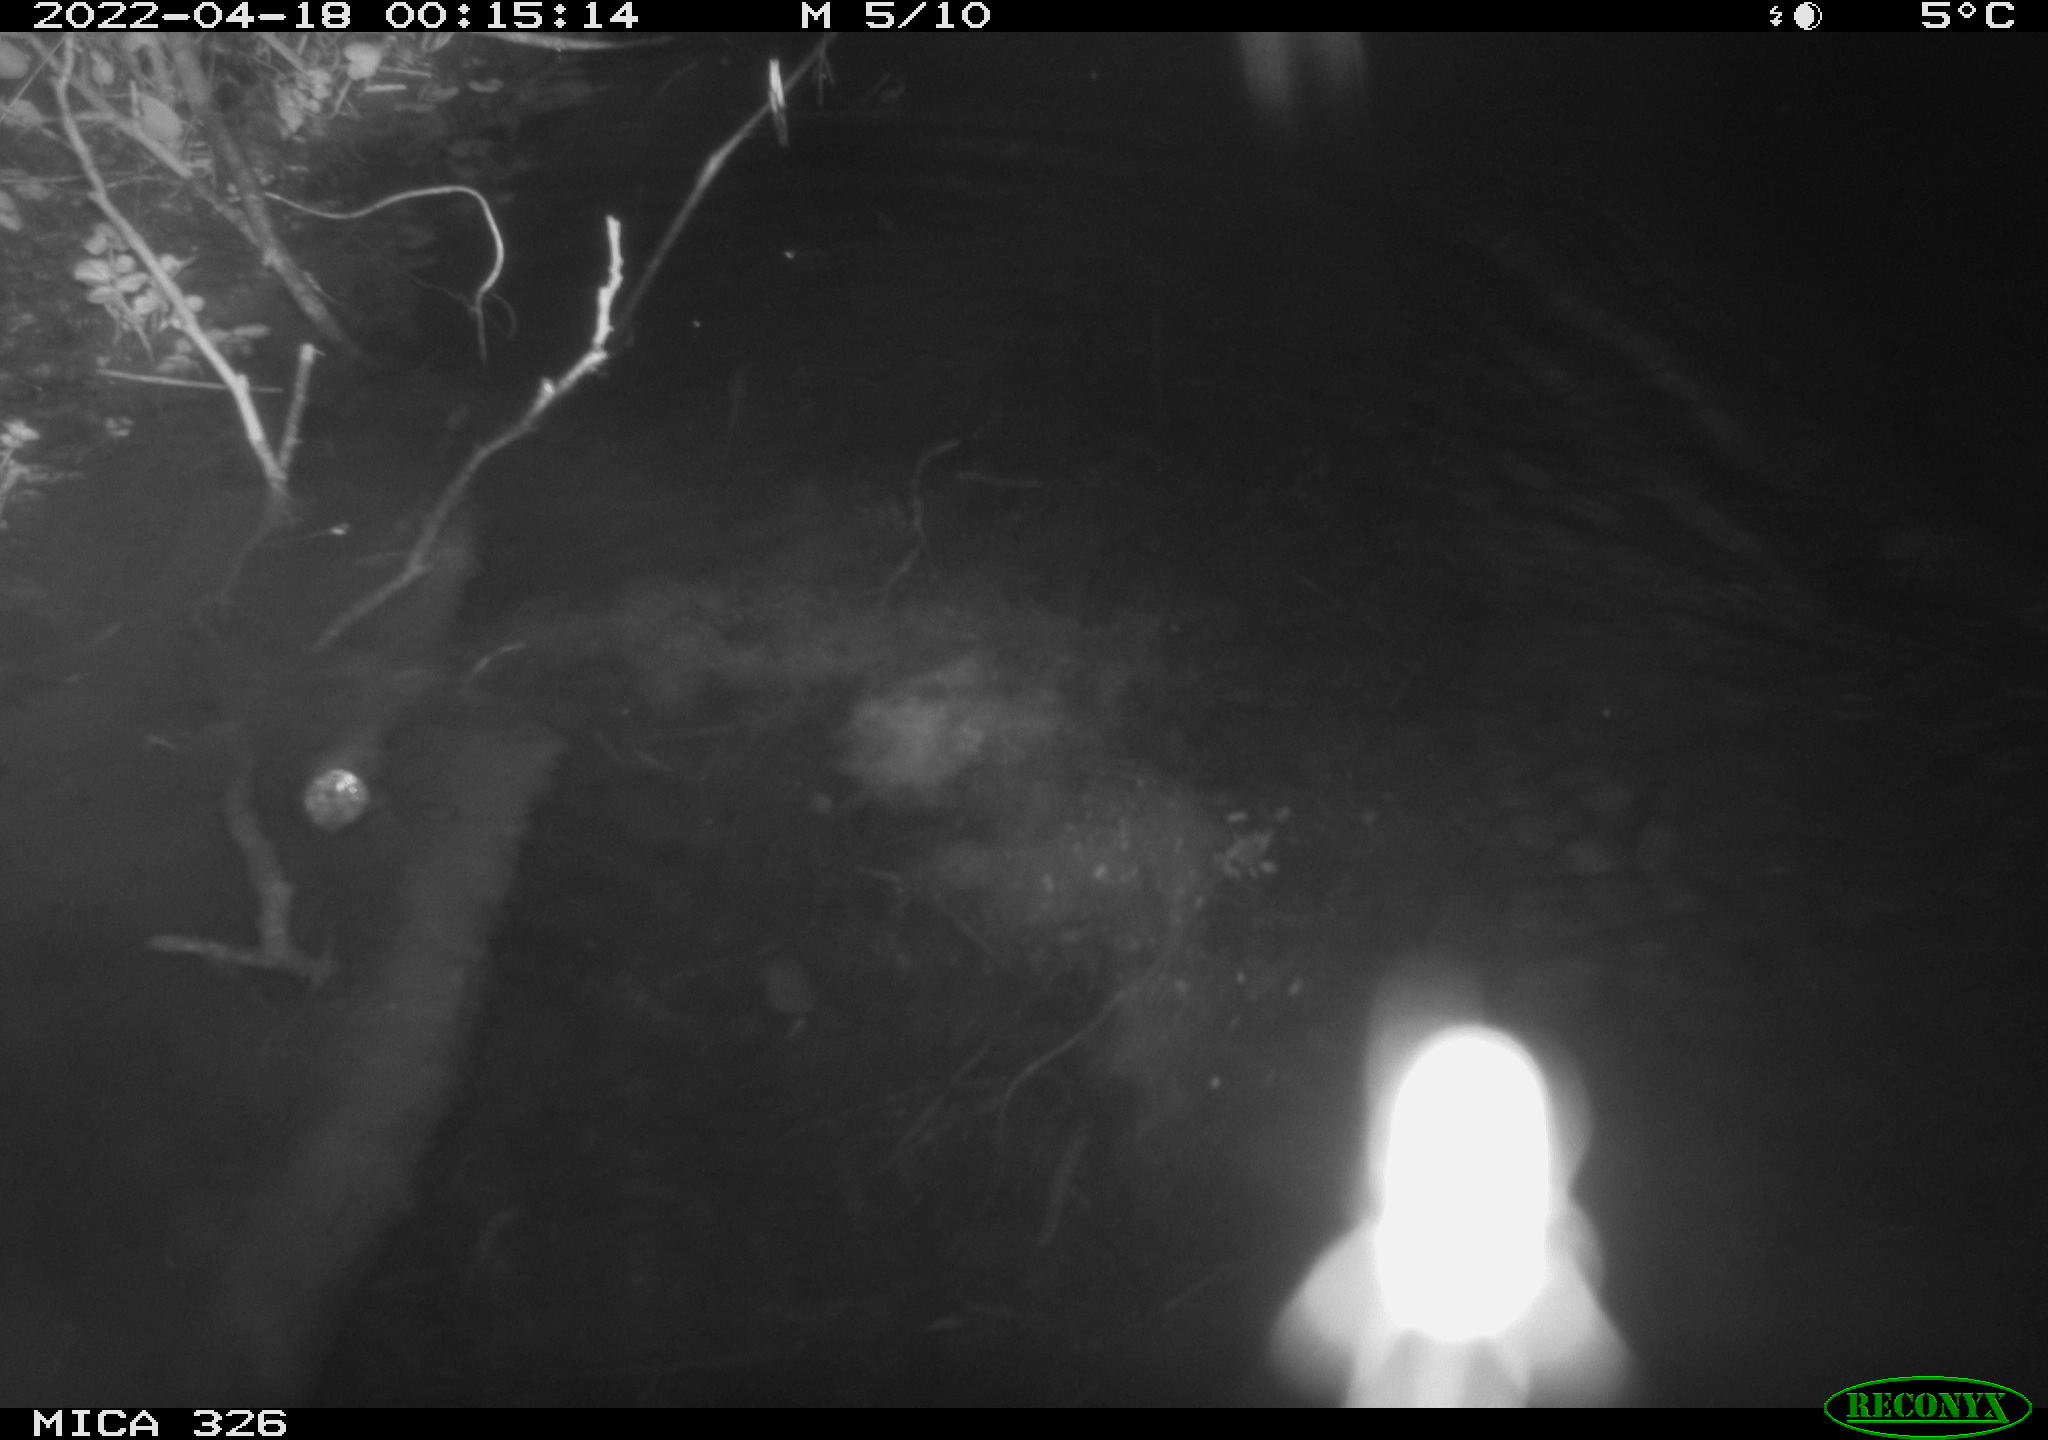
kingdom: Animalia
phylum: Chordata
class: Mammalia
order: Rodentia
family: Muridae
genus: Rattus
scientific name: Rattus norvegicus
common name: Brown rat
